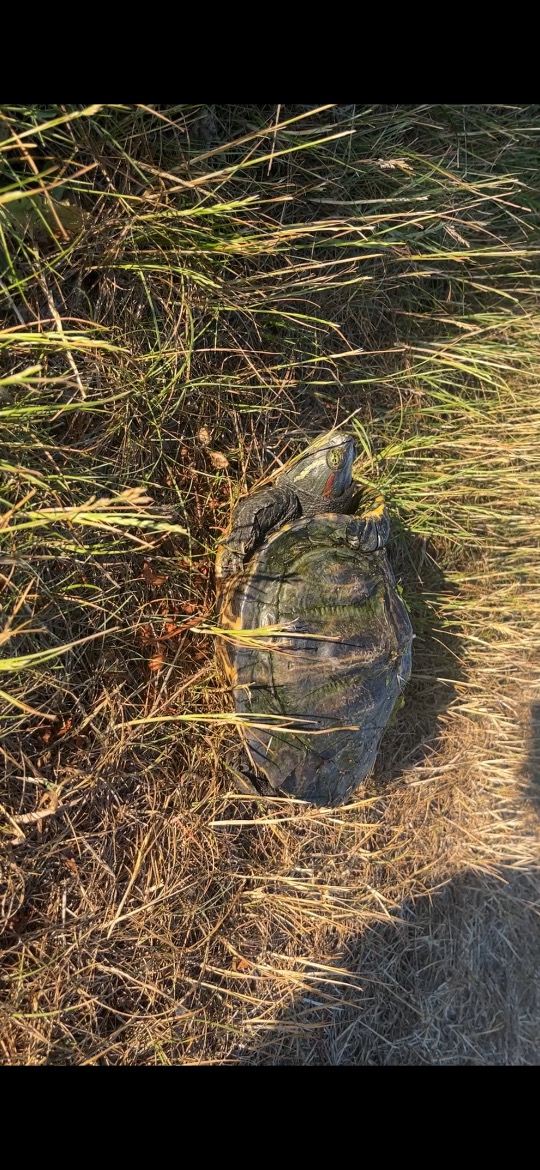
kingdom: Animalia
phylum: Chordata
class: Testudines
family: Emydidae
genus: Trachemys
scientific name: Trachemys scripta
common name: Rødøret terrapin
